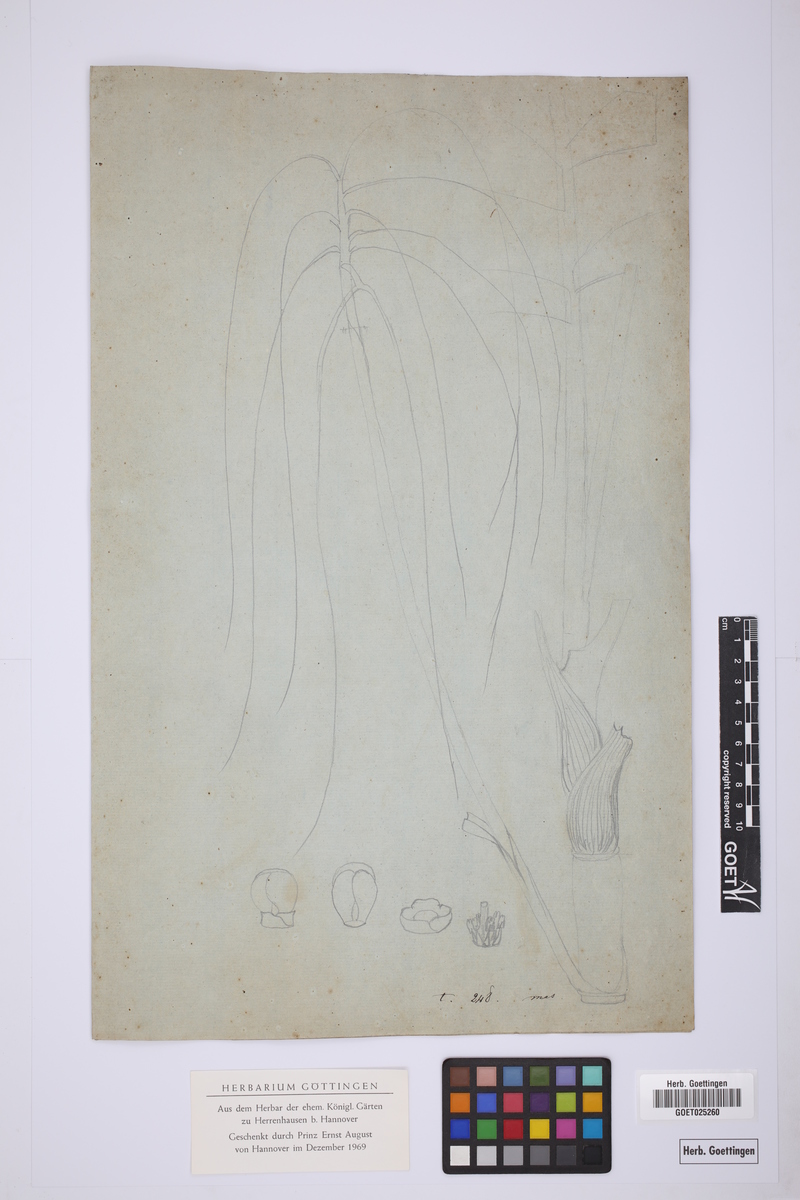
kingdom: Plantae
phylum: Tracheophyta
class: Liliopsida
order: Arecales
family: Arecaceae
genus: Chamaedorea
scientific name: Chamaedorea pinnatifrons
